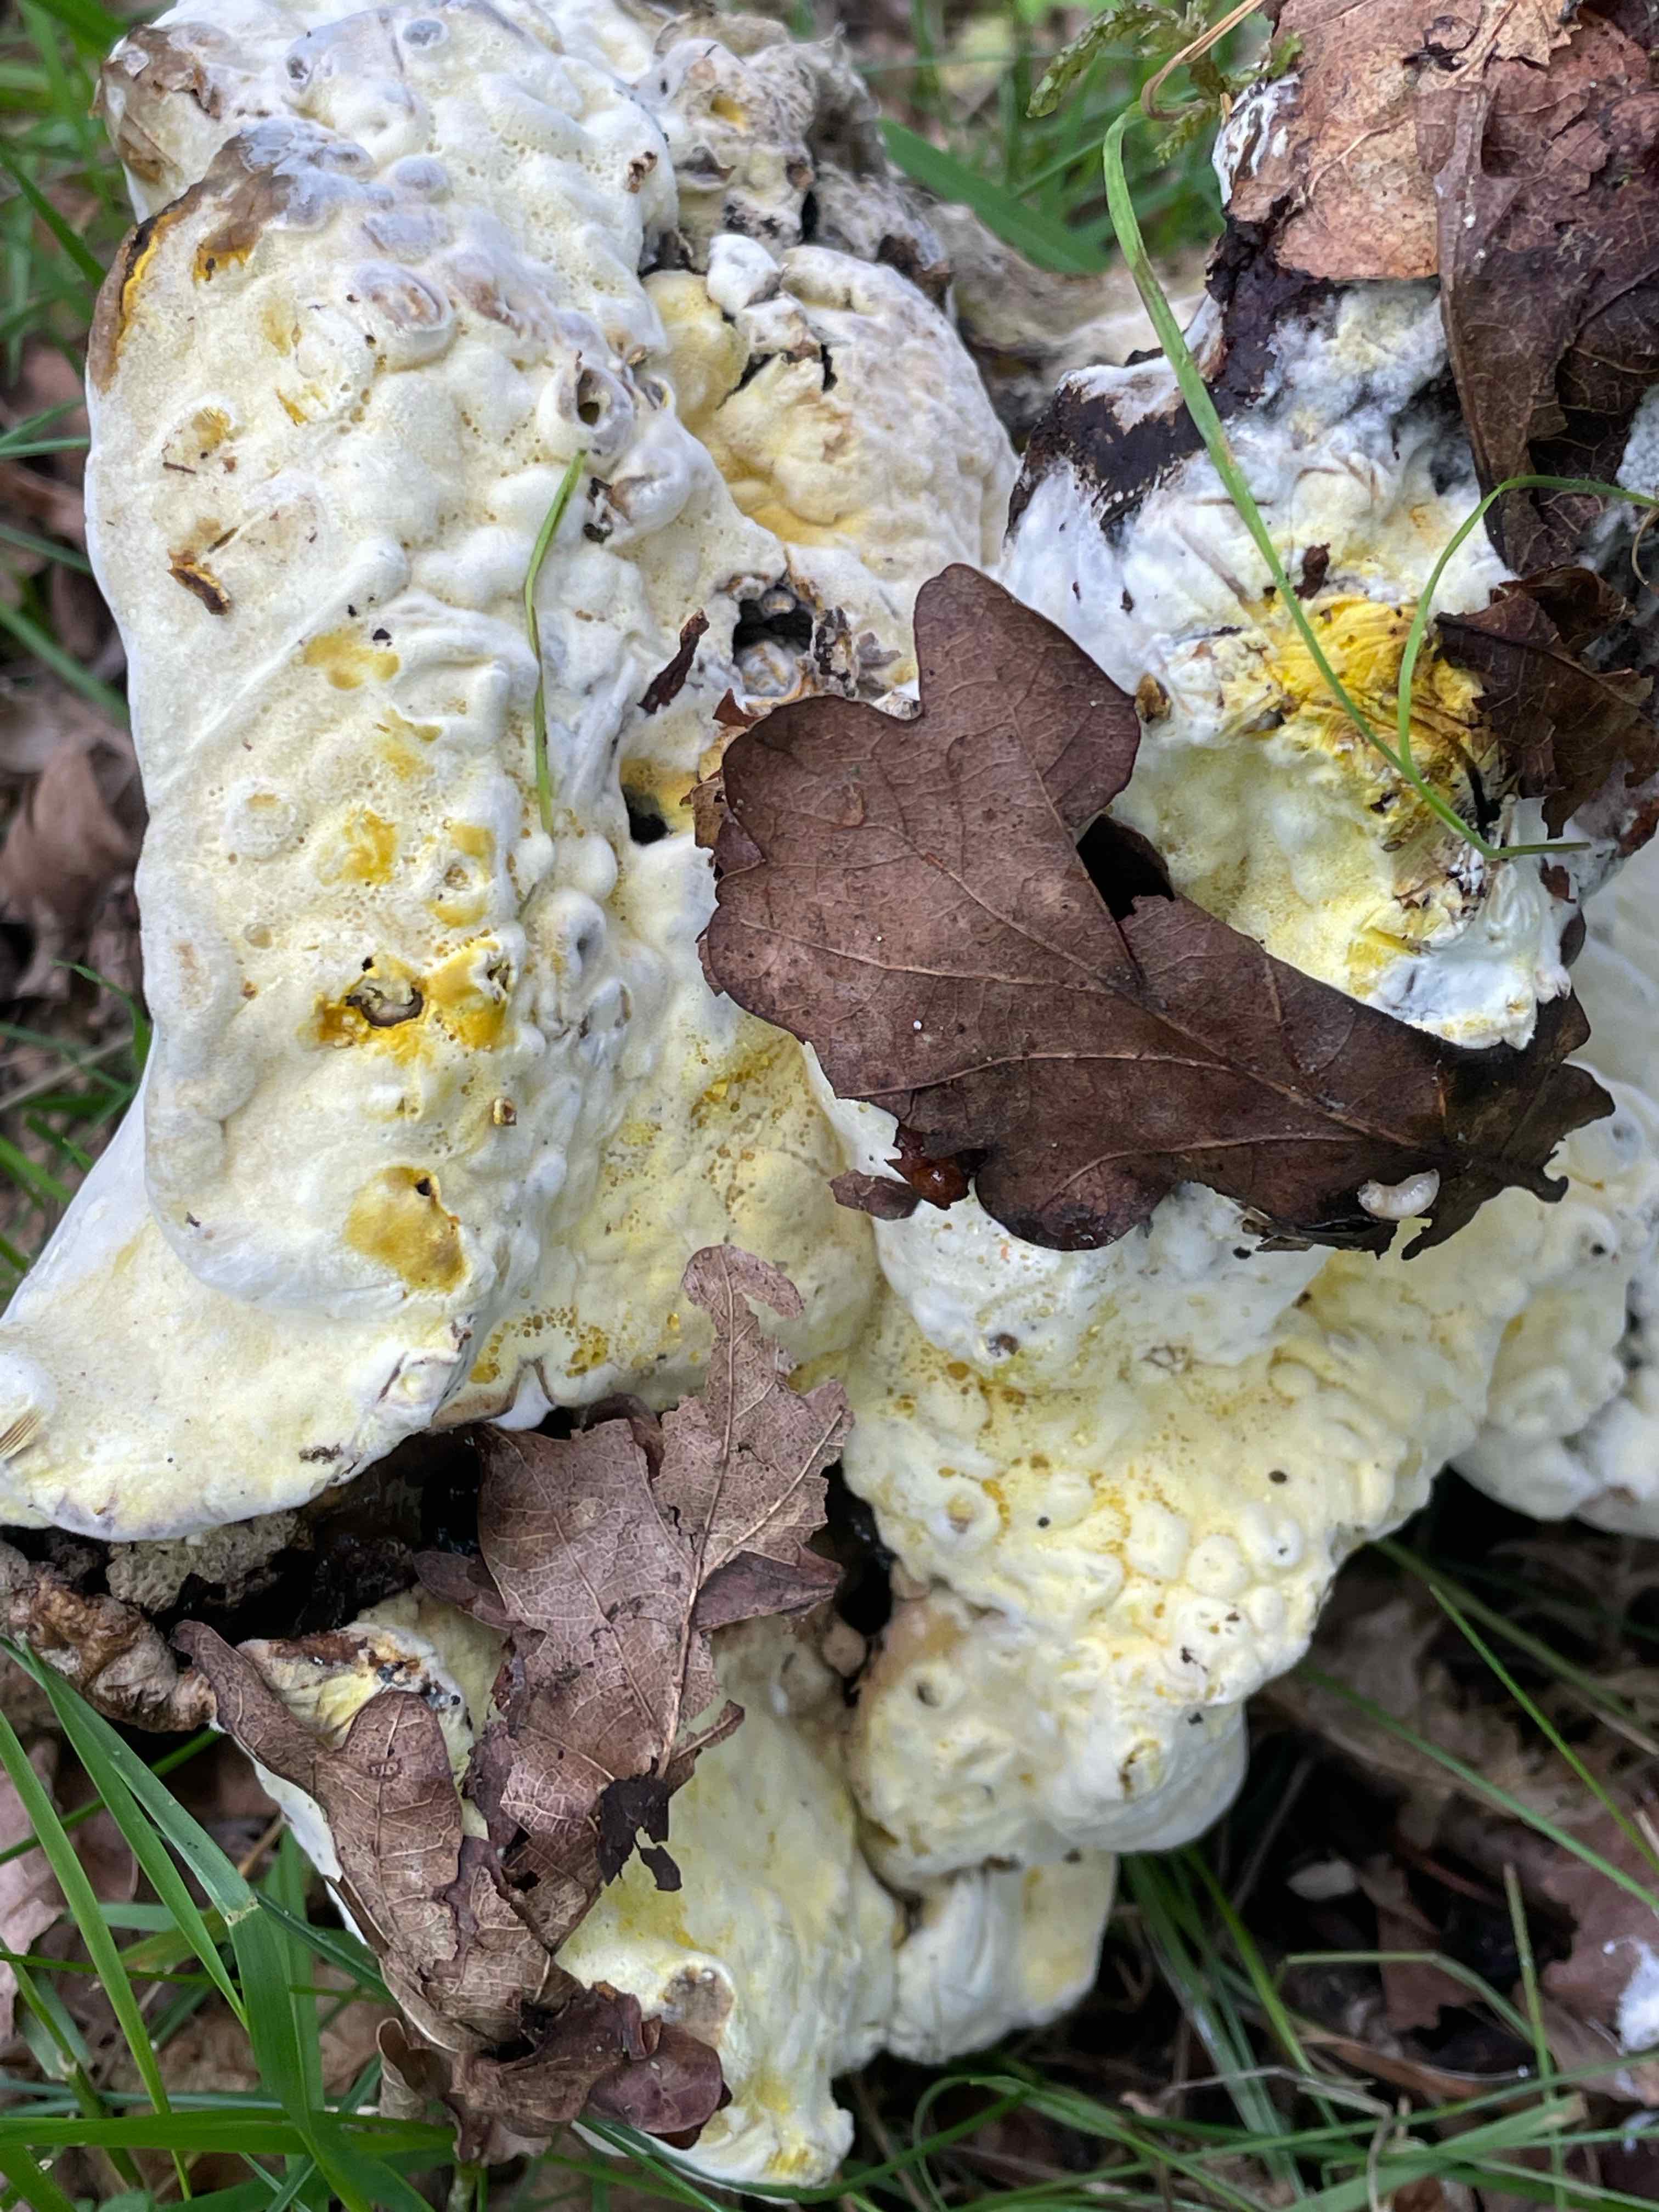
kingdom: Fungi
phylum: Ascomycota
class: Sordariomycetes
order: Hypocreales
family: Hypocreaceae
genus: Hypomyces
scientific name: Hypomyces chrysospermus
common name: gulskimmel-snylteskorpe
